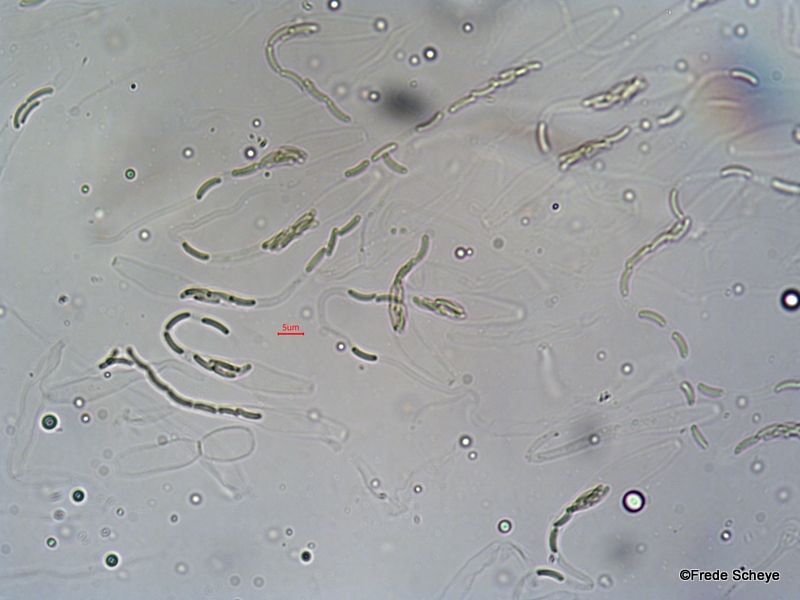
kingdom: Fungi
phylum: Ascomycota
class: Sordariomycetes
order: Xylariales
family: Diatrypaceae
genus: Diatrype
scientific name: Diatrype bullata
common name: pile-kulskorpe
